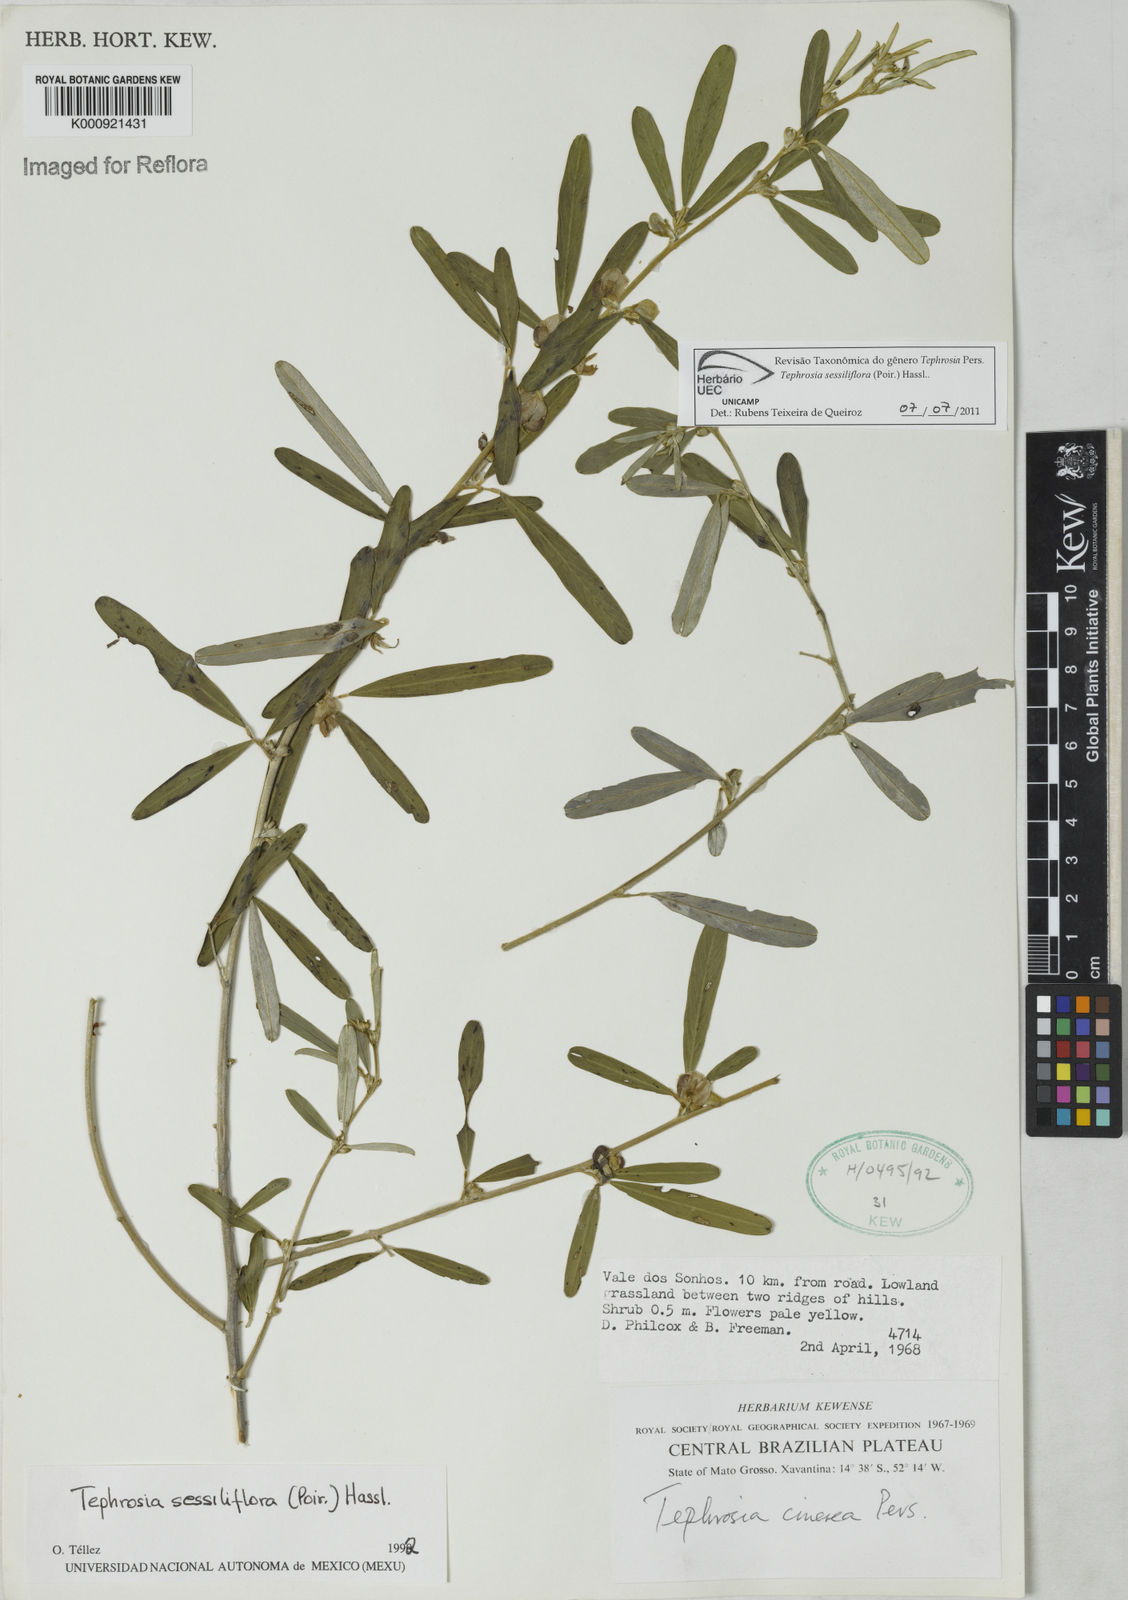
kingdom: Plantae
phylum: Tracheophyta
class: Magnoliopsida
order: Fabales
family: Fabaceae
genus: Tephrosia
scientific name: Tephrosia sessiliflora
